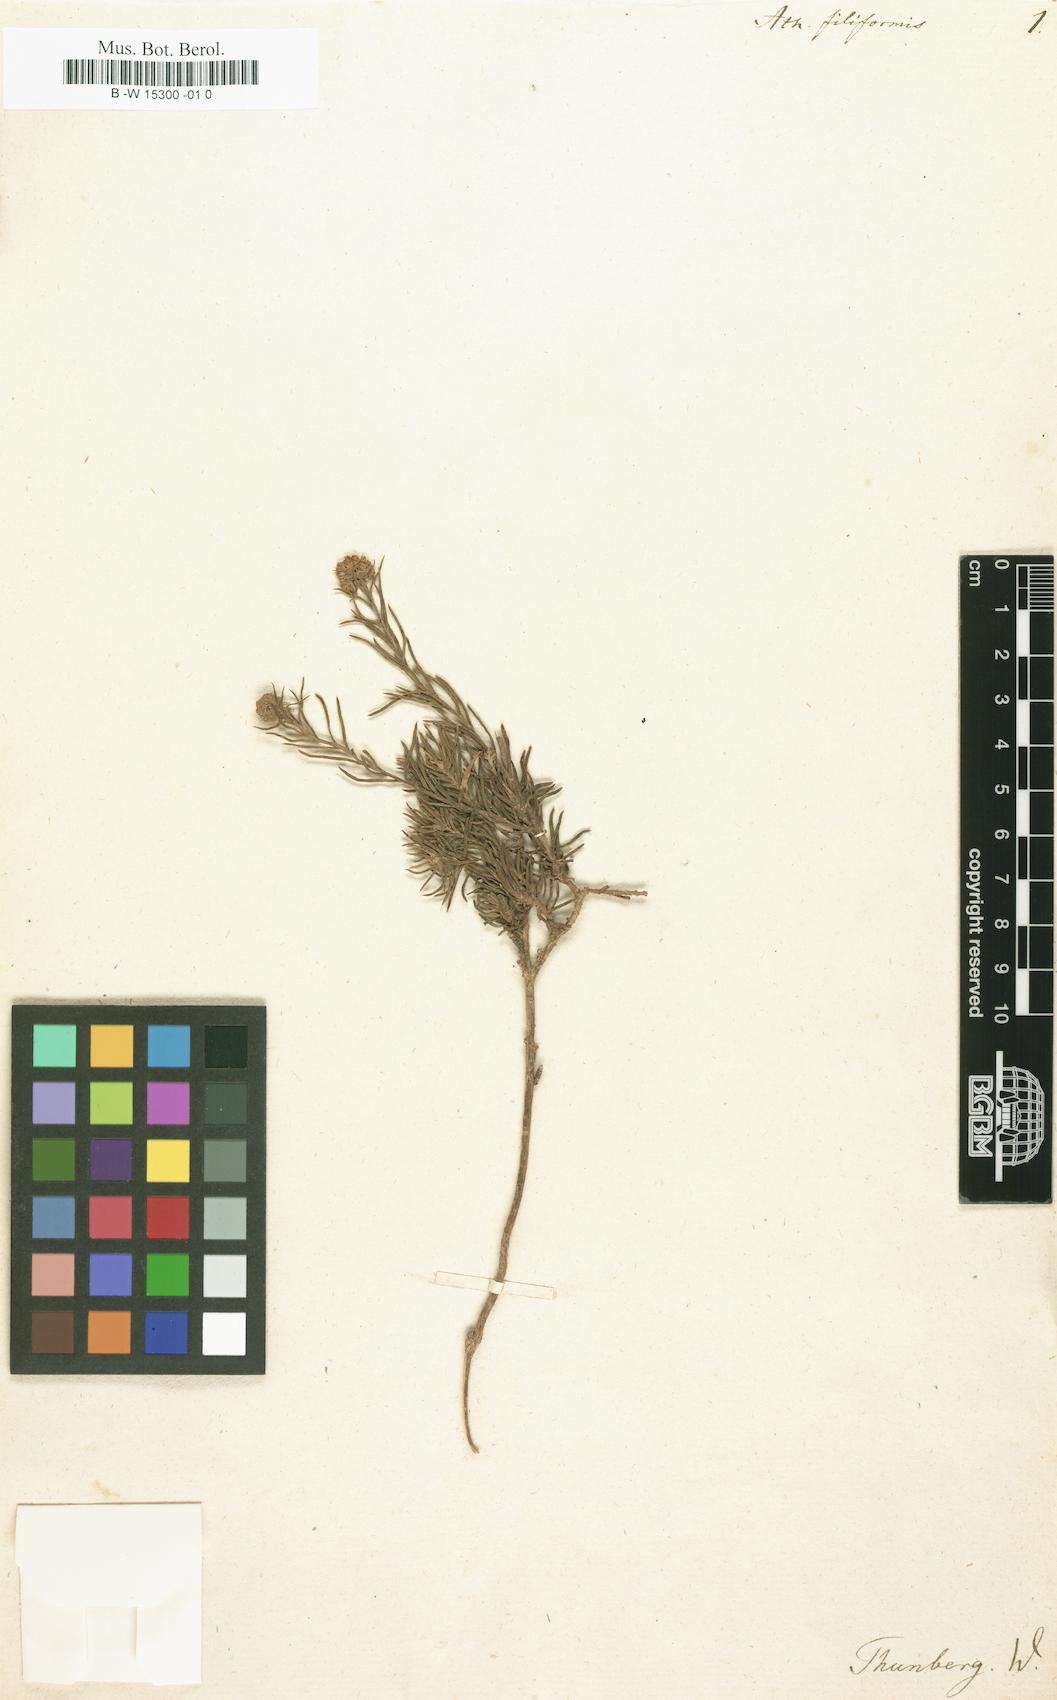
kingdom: Plantae
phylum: Tracheophyta
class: Magnoliopsida
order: Asterales
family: Asteraceae
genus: Athanasia
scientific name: Athanasia filiformis
